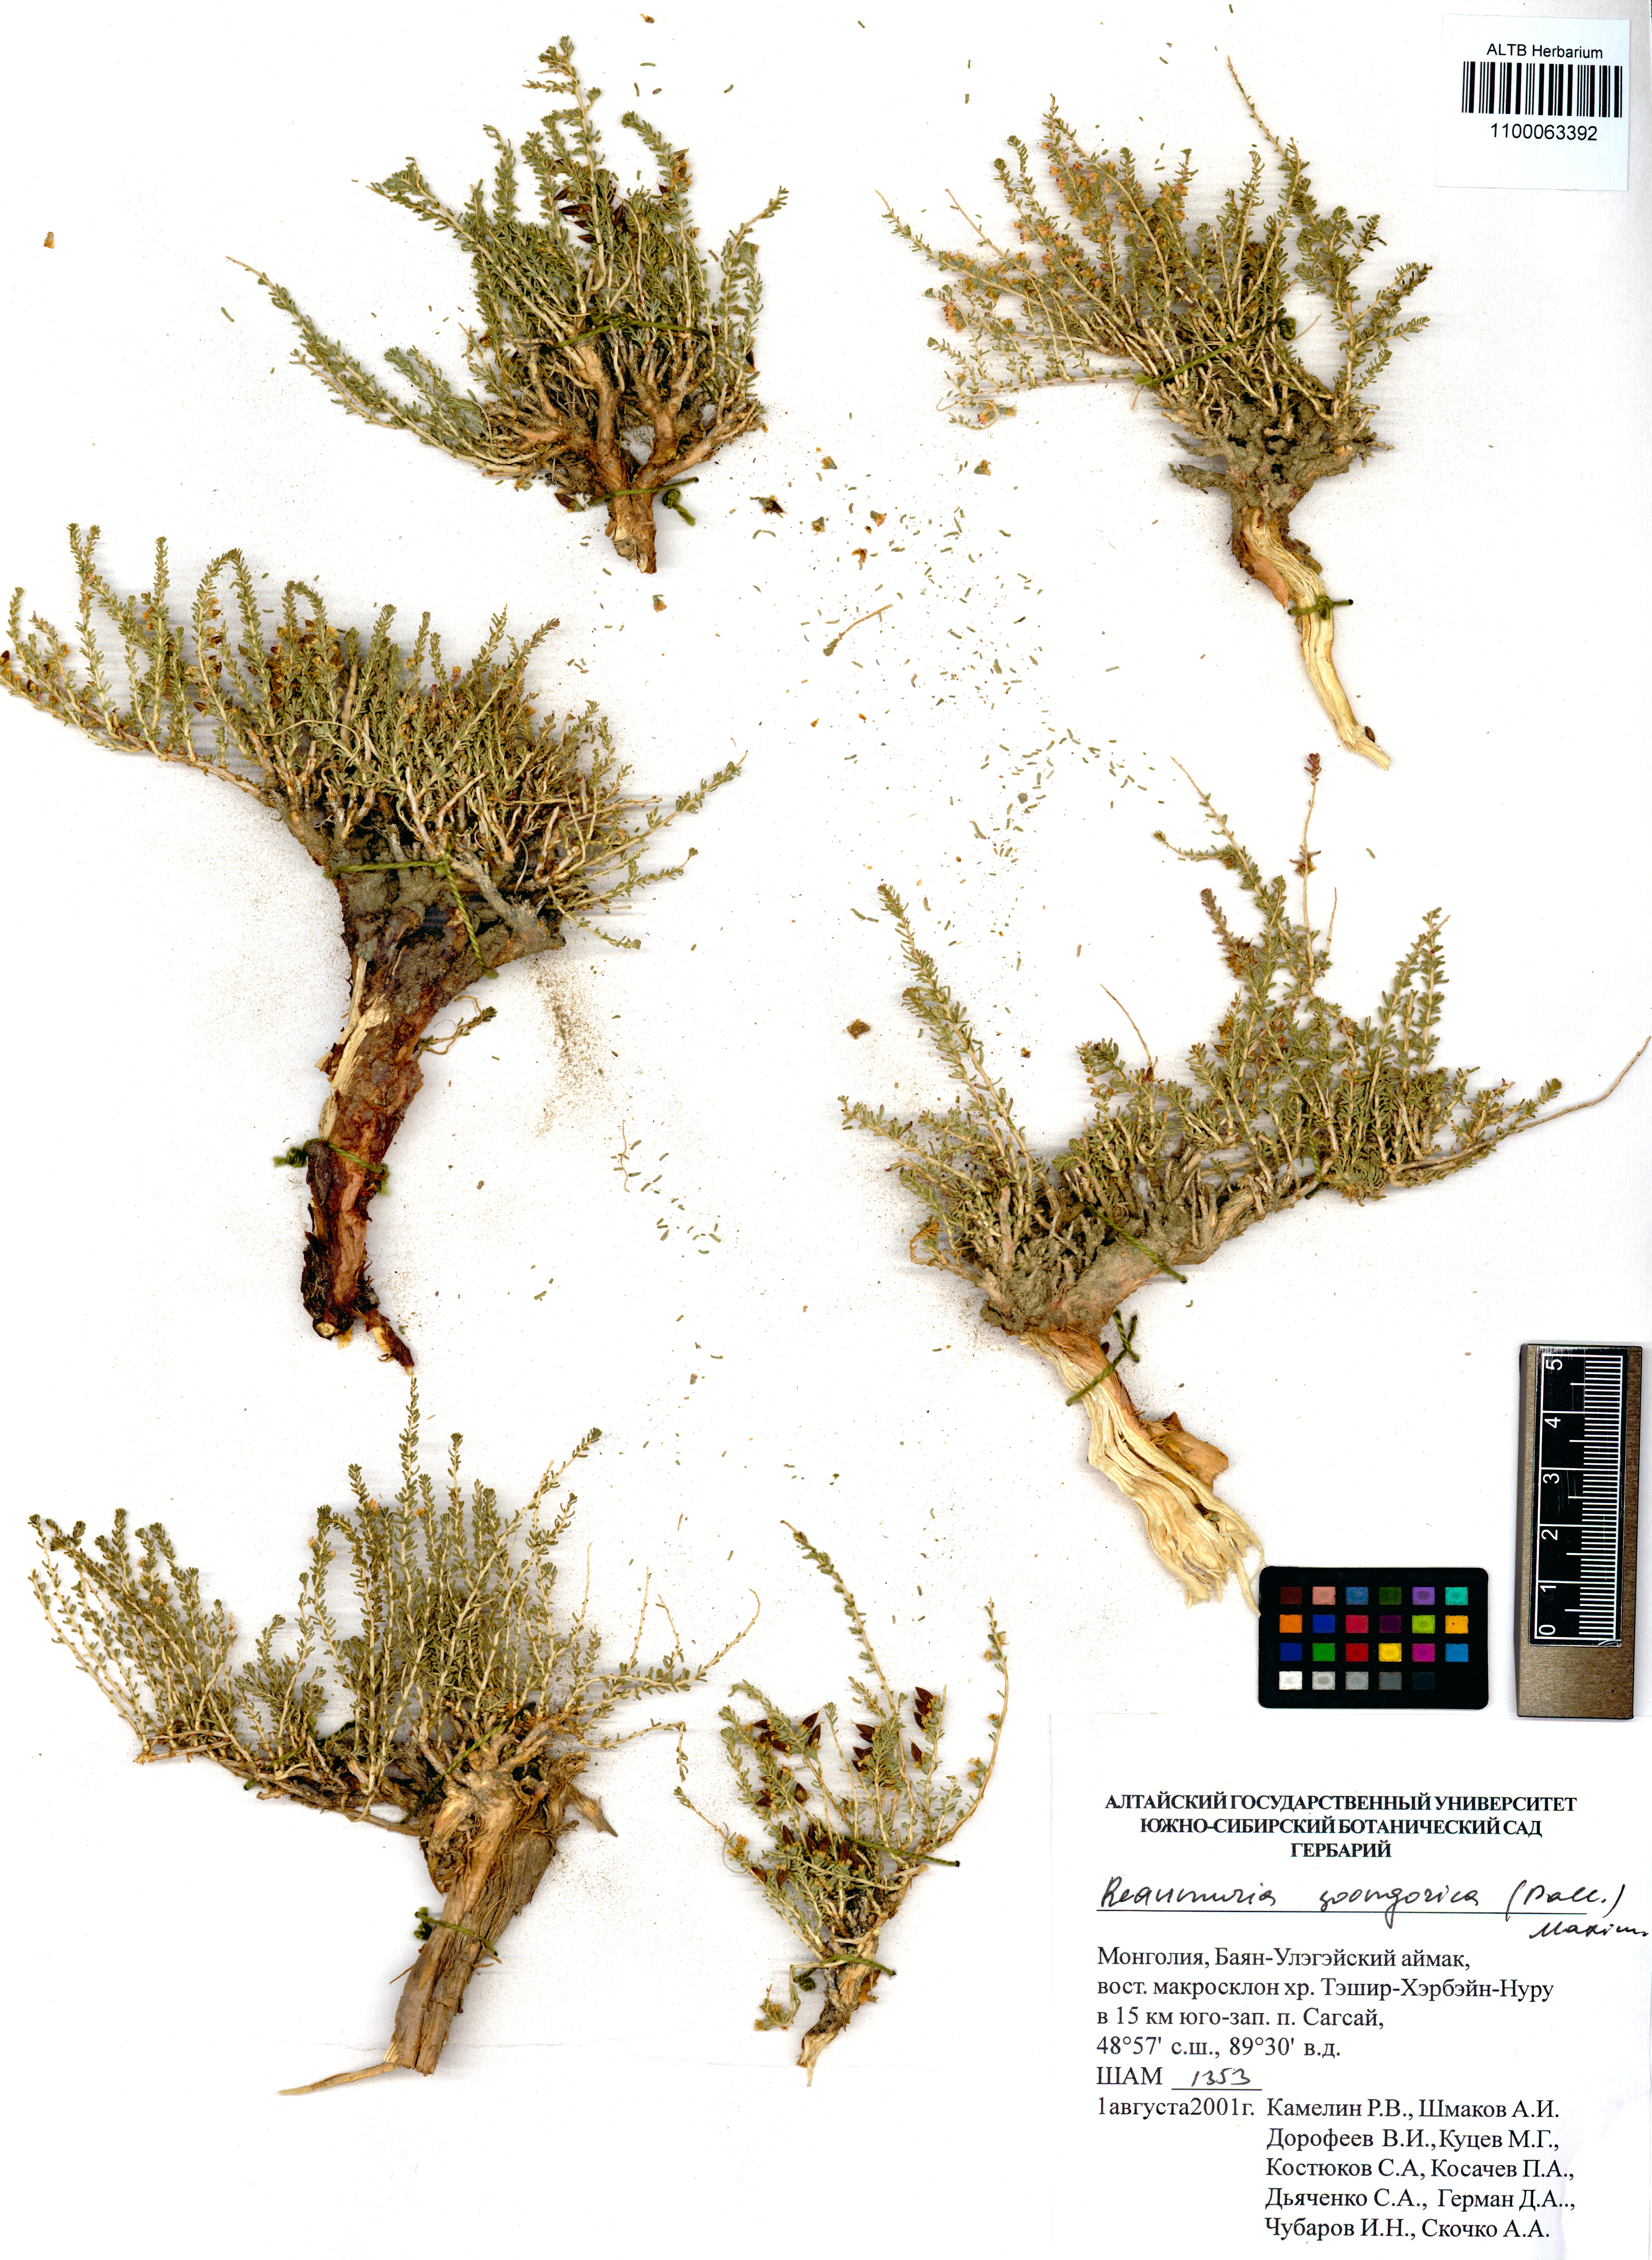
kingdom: Plantae
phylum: Tracheophyta
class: Magnoliopsida
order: Caryophyllales
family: Tamaricaceae
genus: Reaumuria
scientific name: Reaumuria songarica
